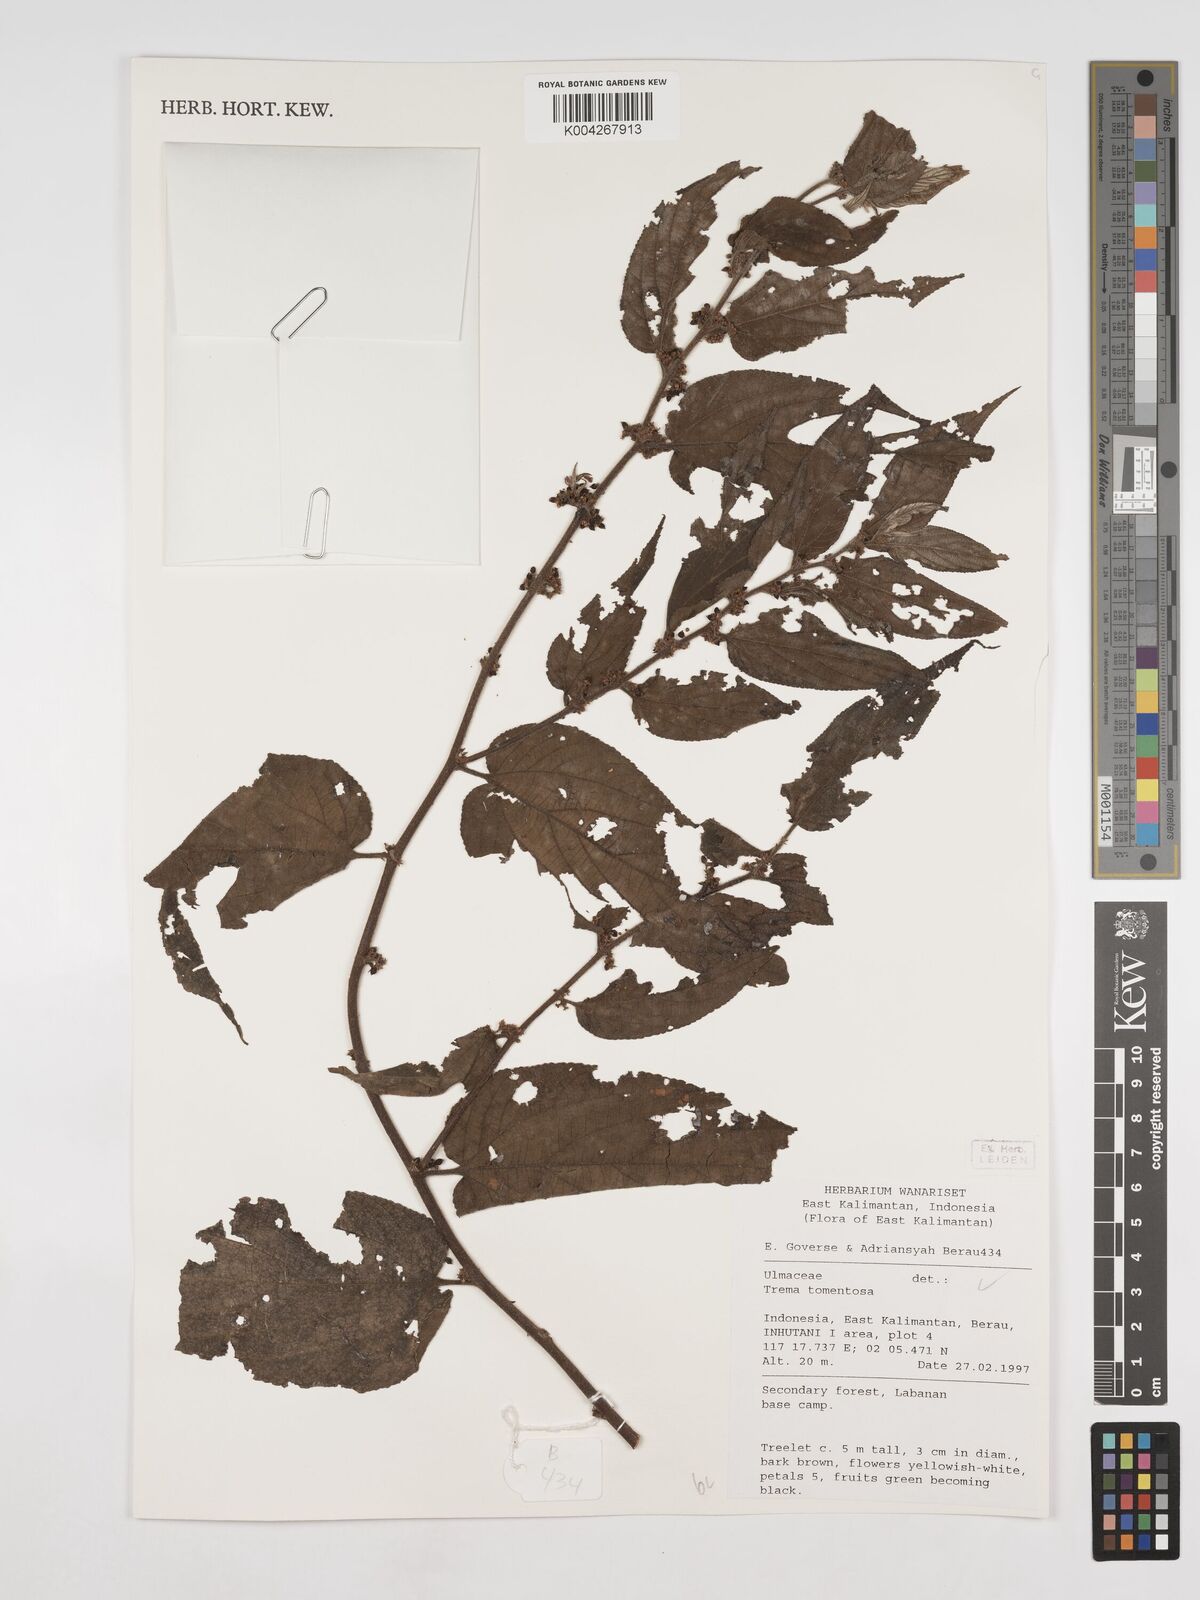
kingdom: Plantae
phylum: Tracheophyta
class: Magnoliopsida
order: Rosales
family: Cannabaceae
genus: Trema
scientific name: Trema tomentosum
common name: Peach-leaf-poisonbush
